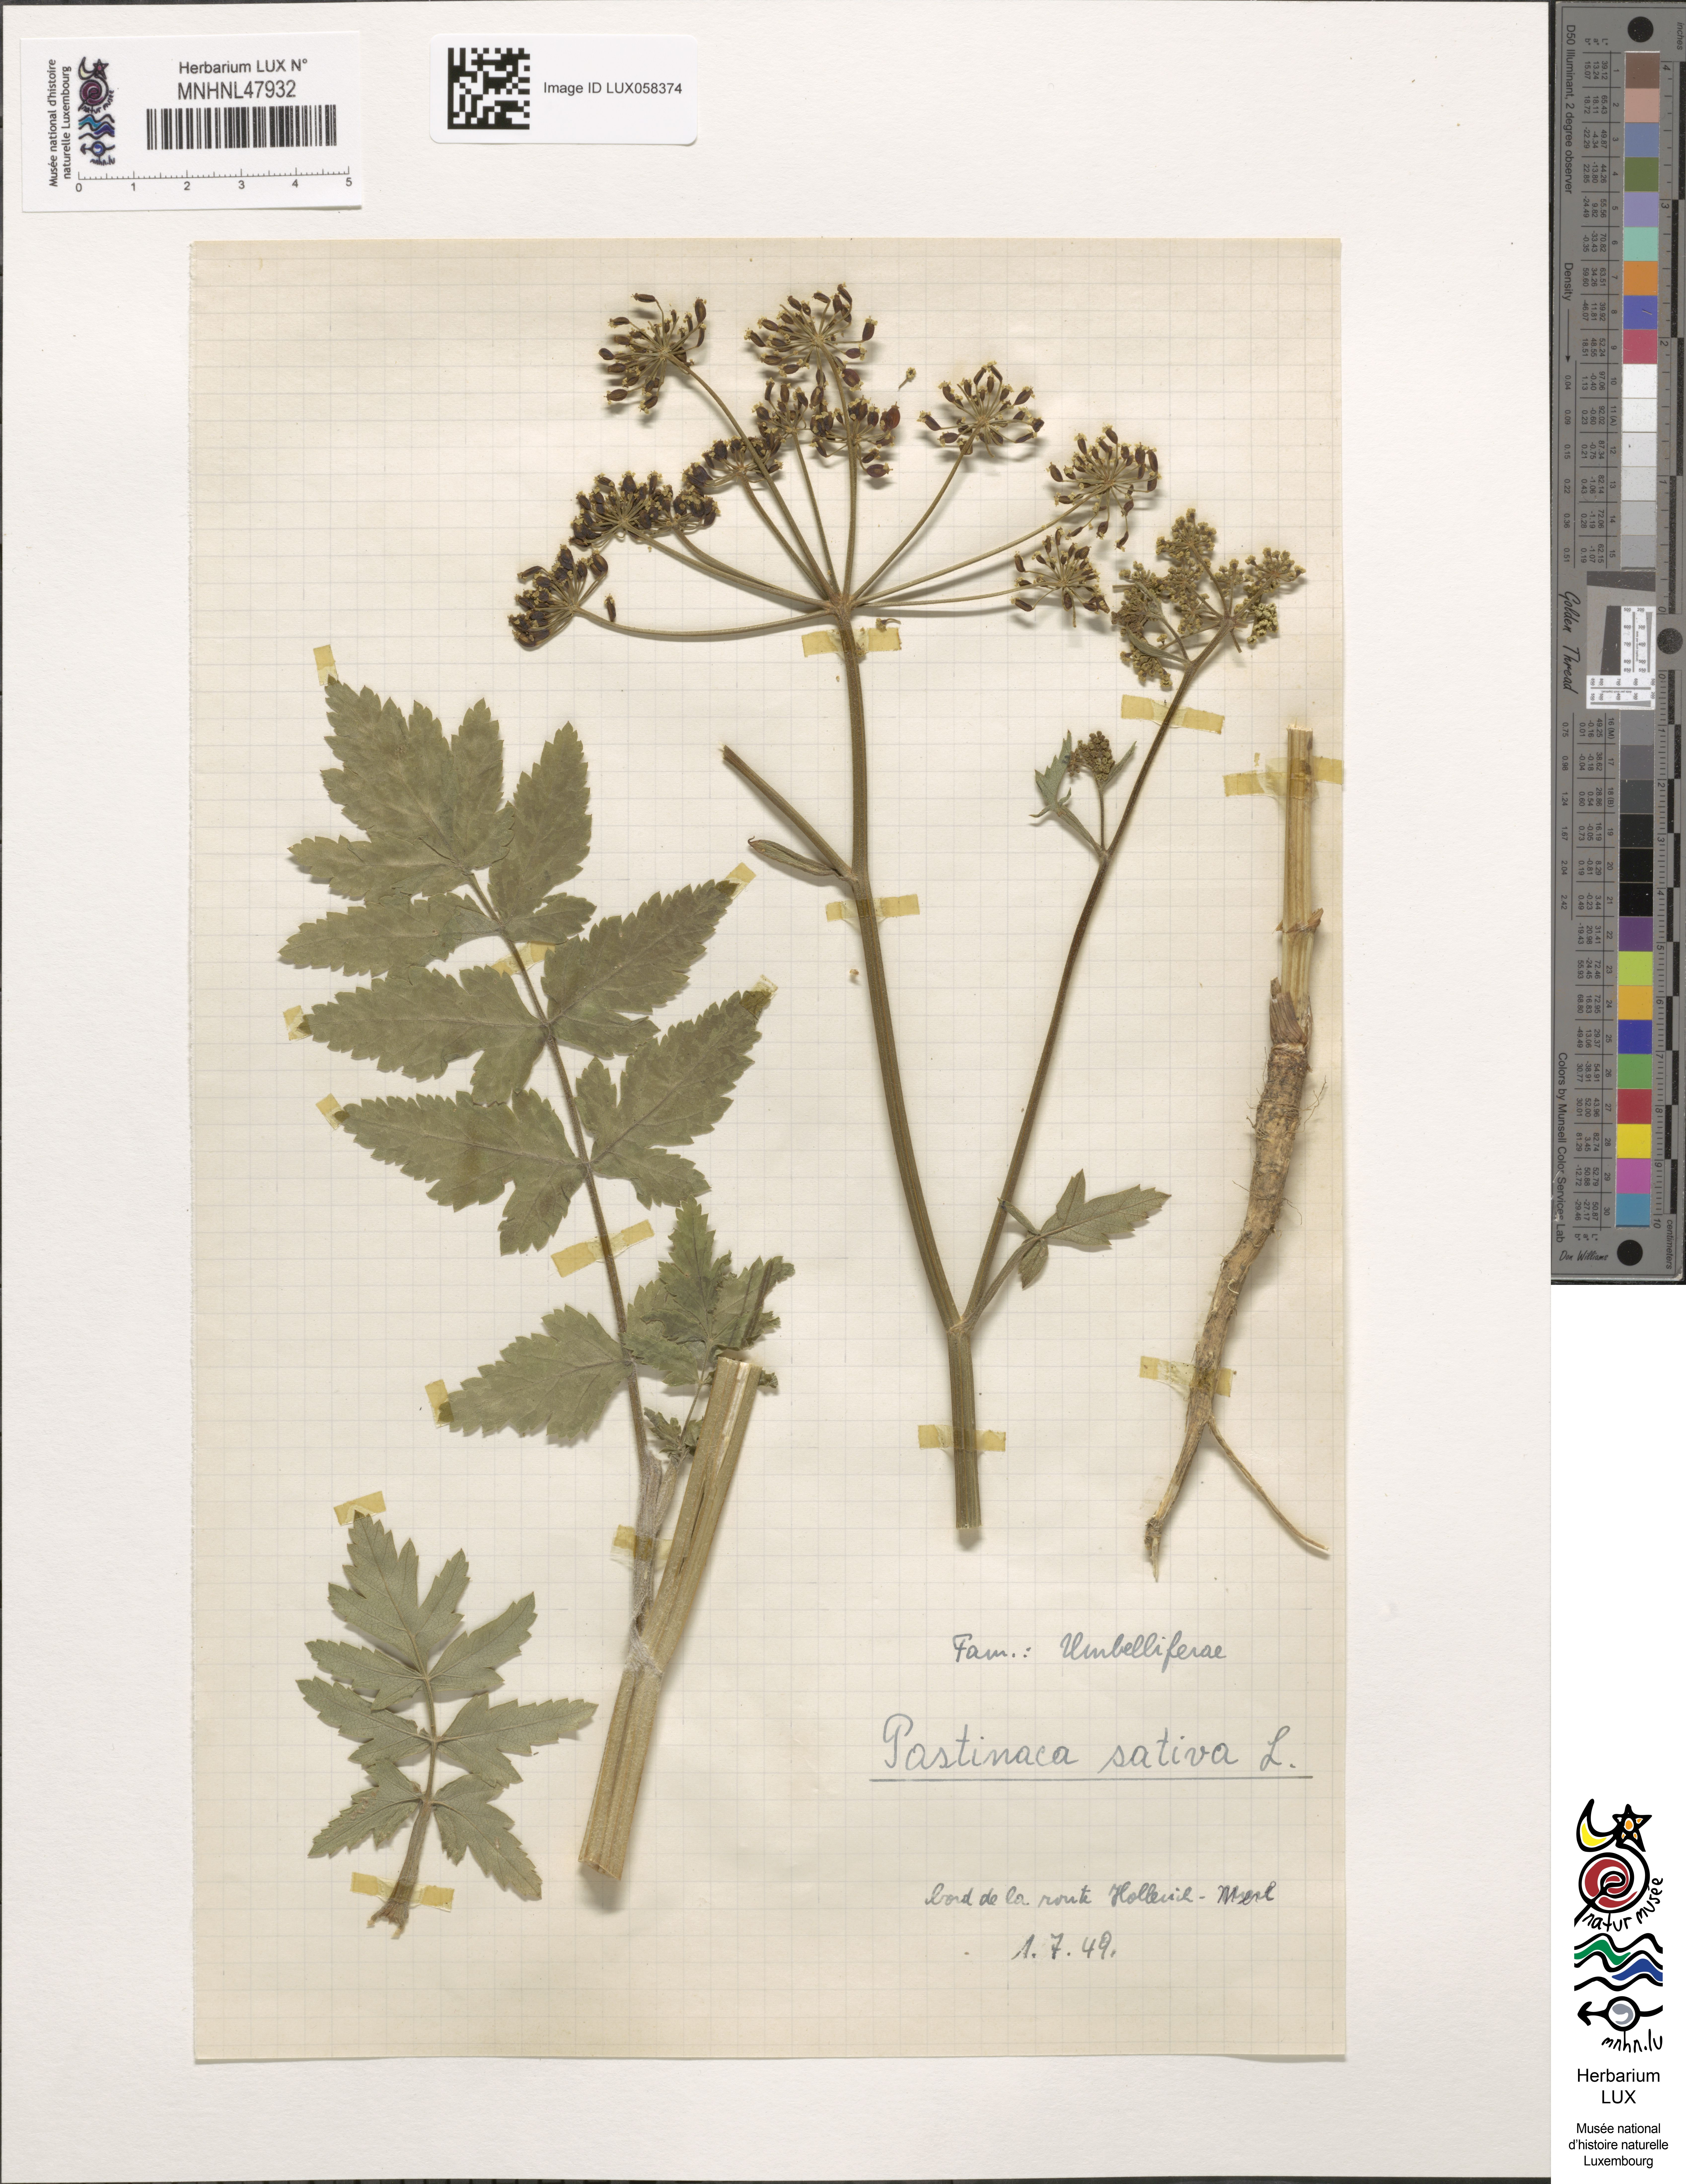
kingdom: Plantae
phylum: Tracheophyta
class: Magnoliopsida
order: Apiales
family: Apiaceae
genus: Pastinaca
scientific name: Pastinaca sativa
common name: Wild parsnip
